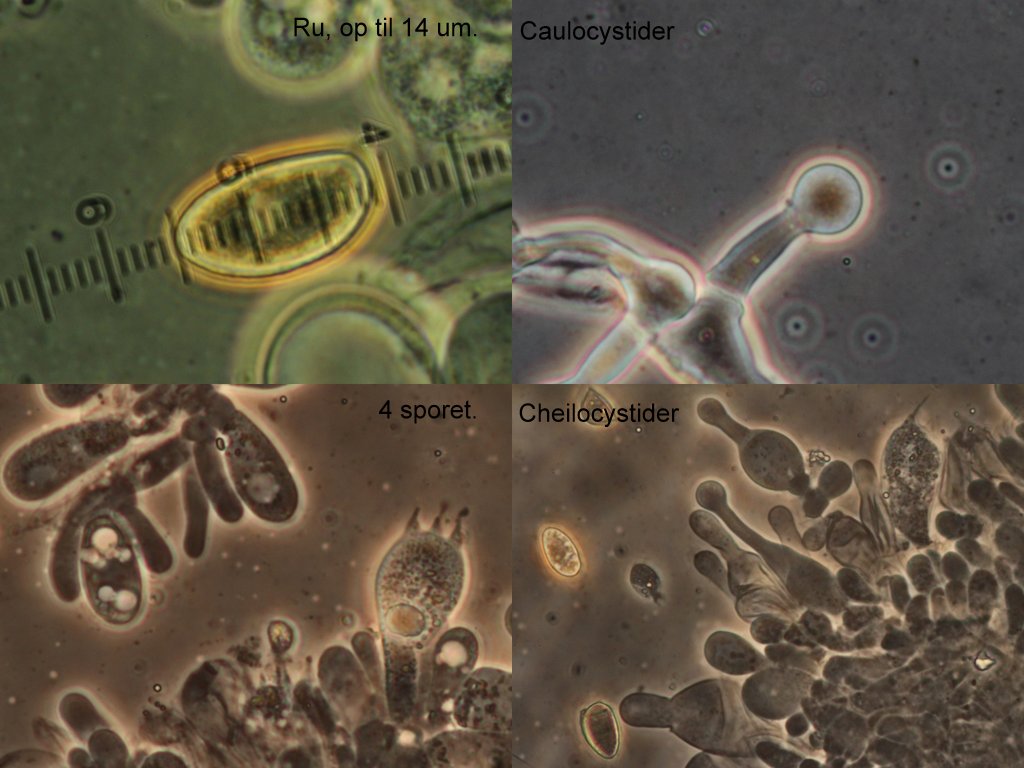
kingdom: Fungi
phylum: Basidiomycota
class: Agaricomycetes
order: Agaricales
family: Hymenogastraceae
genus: Galerina
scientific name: Galerina clavata
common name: kær-hjelmhat
